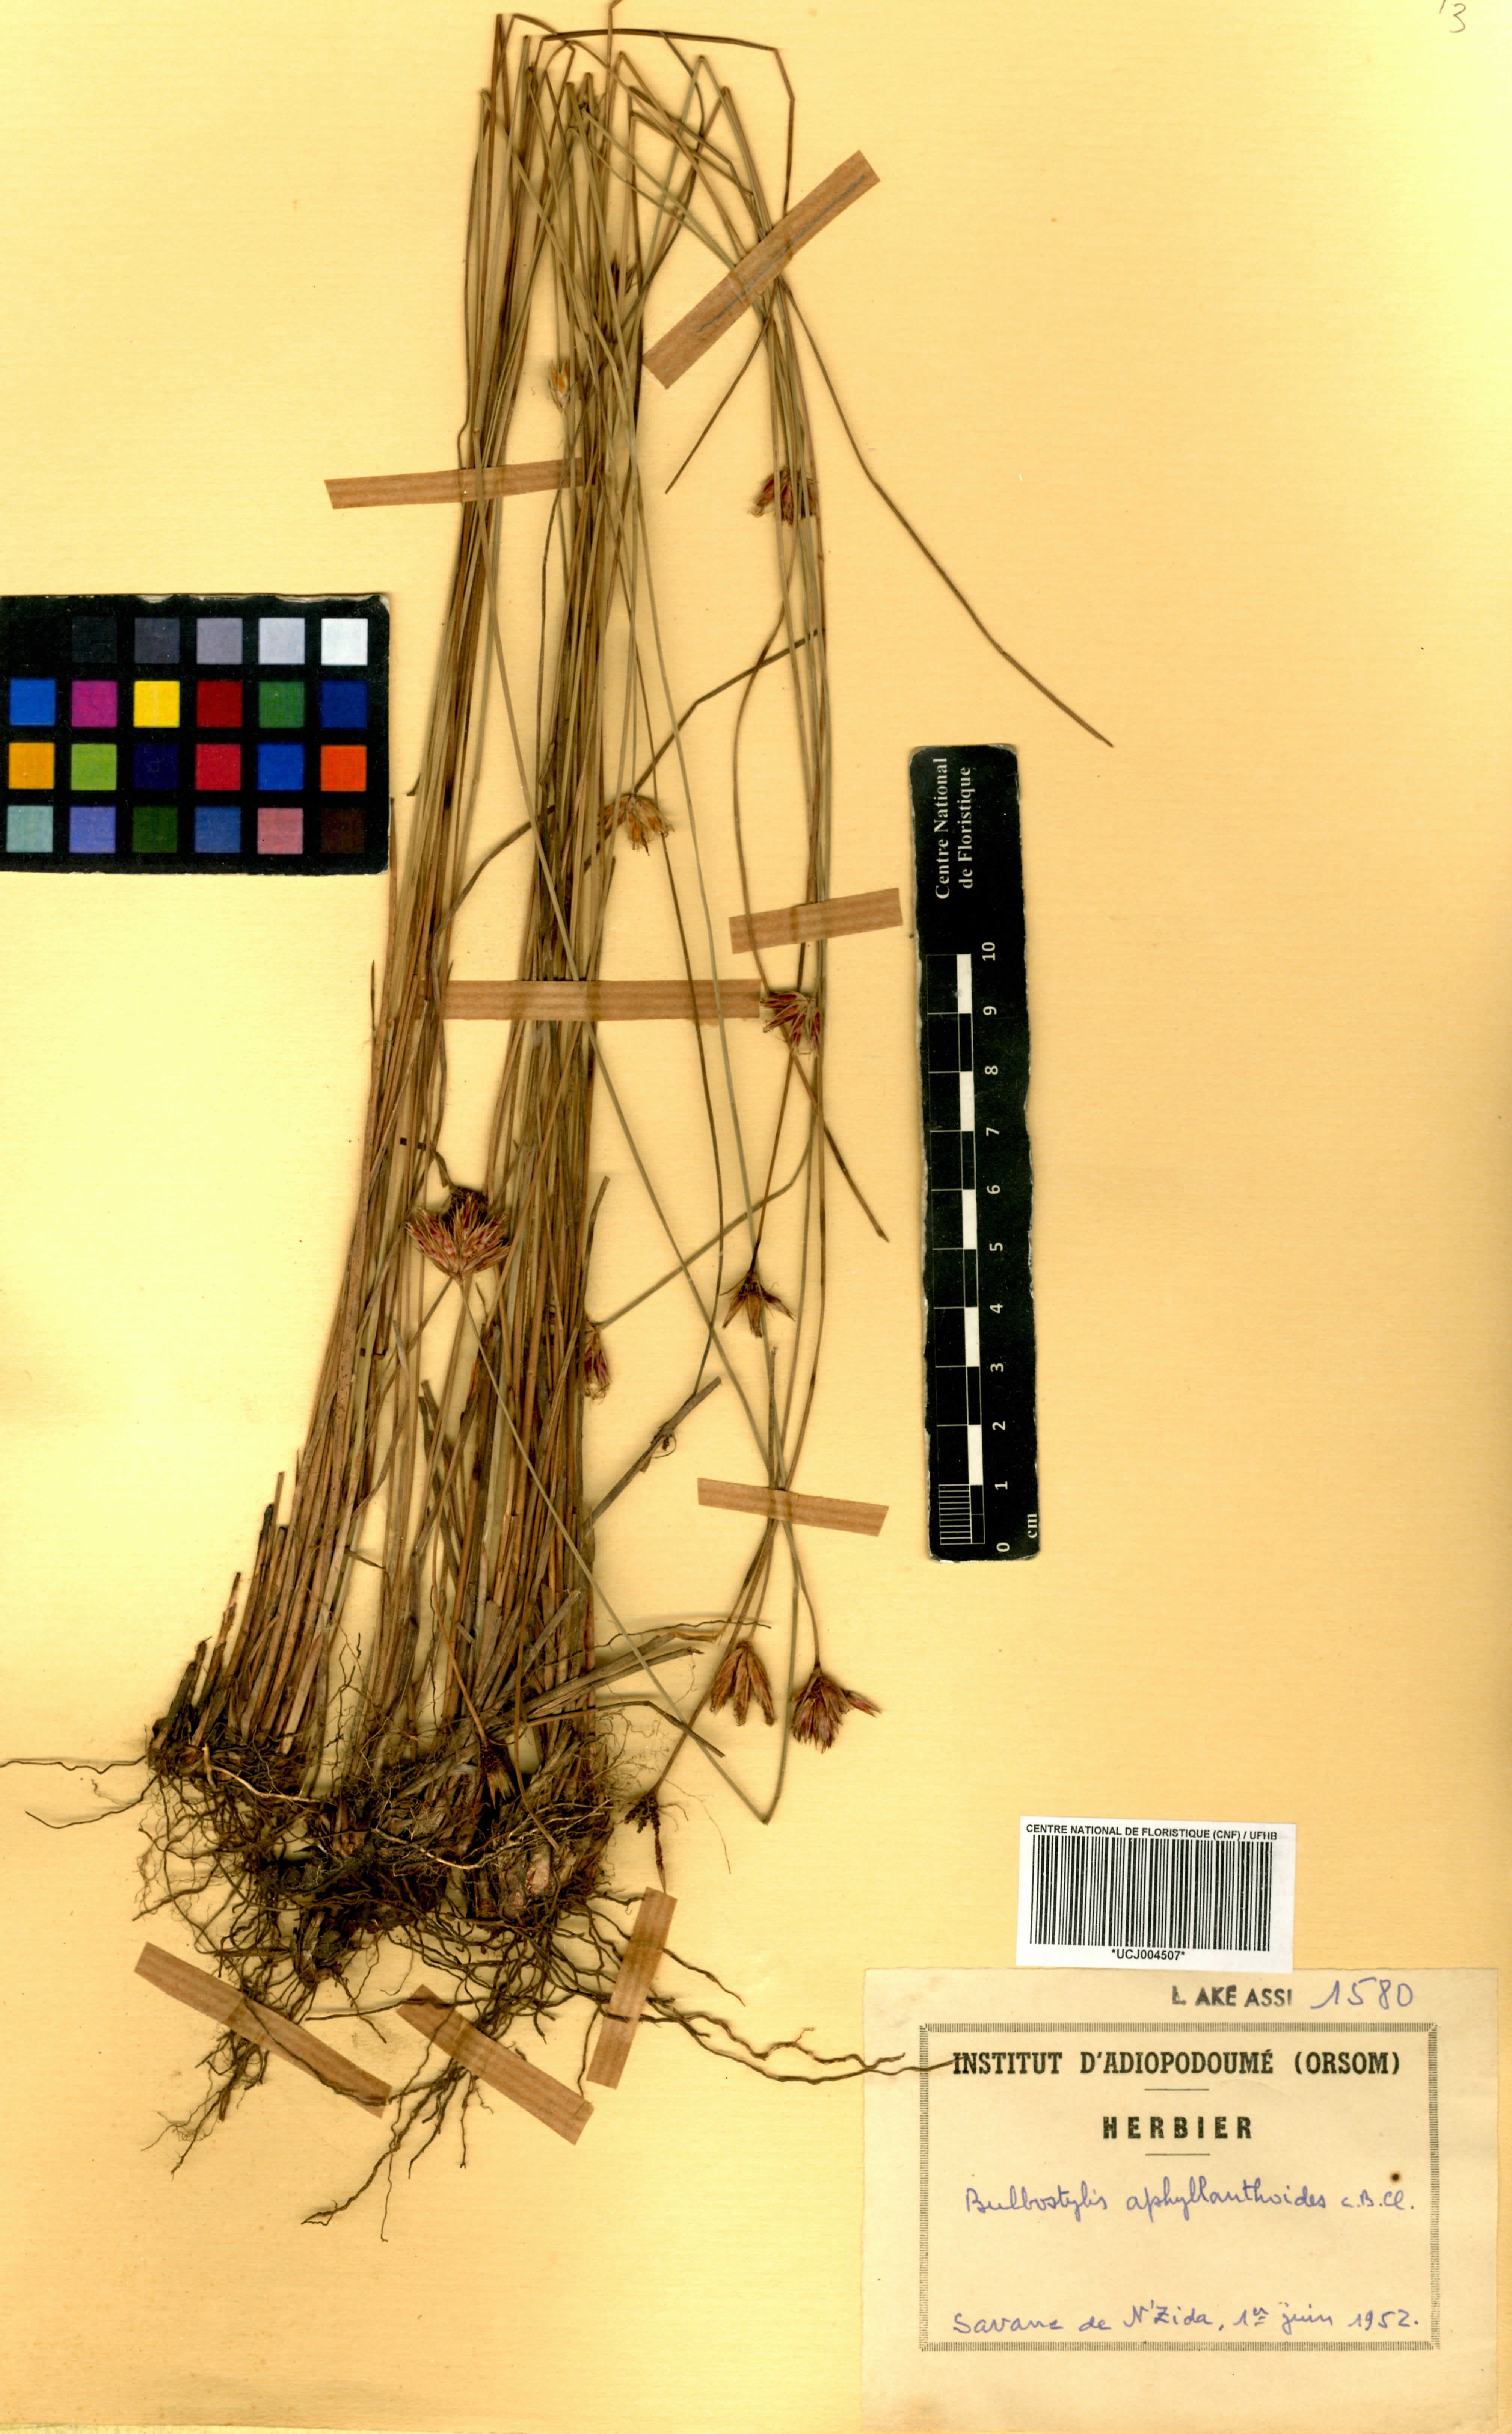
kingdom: Plantae
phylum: Tracheophyta
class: Liliopsida
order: Poales
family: Cyperaceae
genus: Bulbostylis
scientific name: Bulbostylis pilosa
